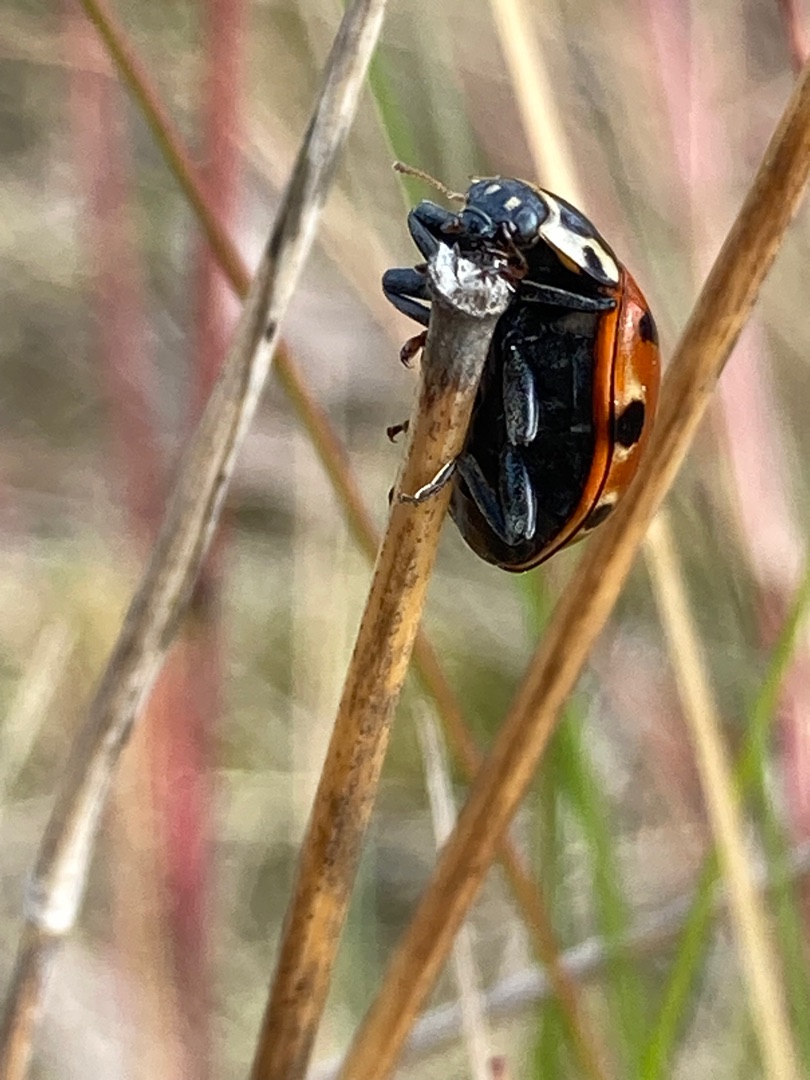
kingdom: Animalia
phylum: Arthropoda
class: Insecta
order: Coleoptera
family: Coccinellidae
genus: Anatis
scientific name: Anatis ocellata
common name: Øjeplettet mariehøne
